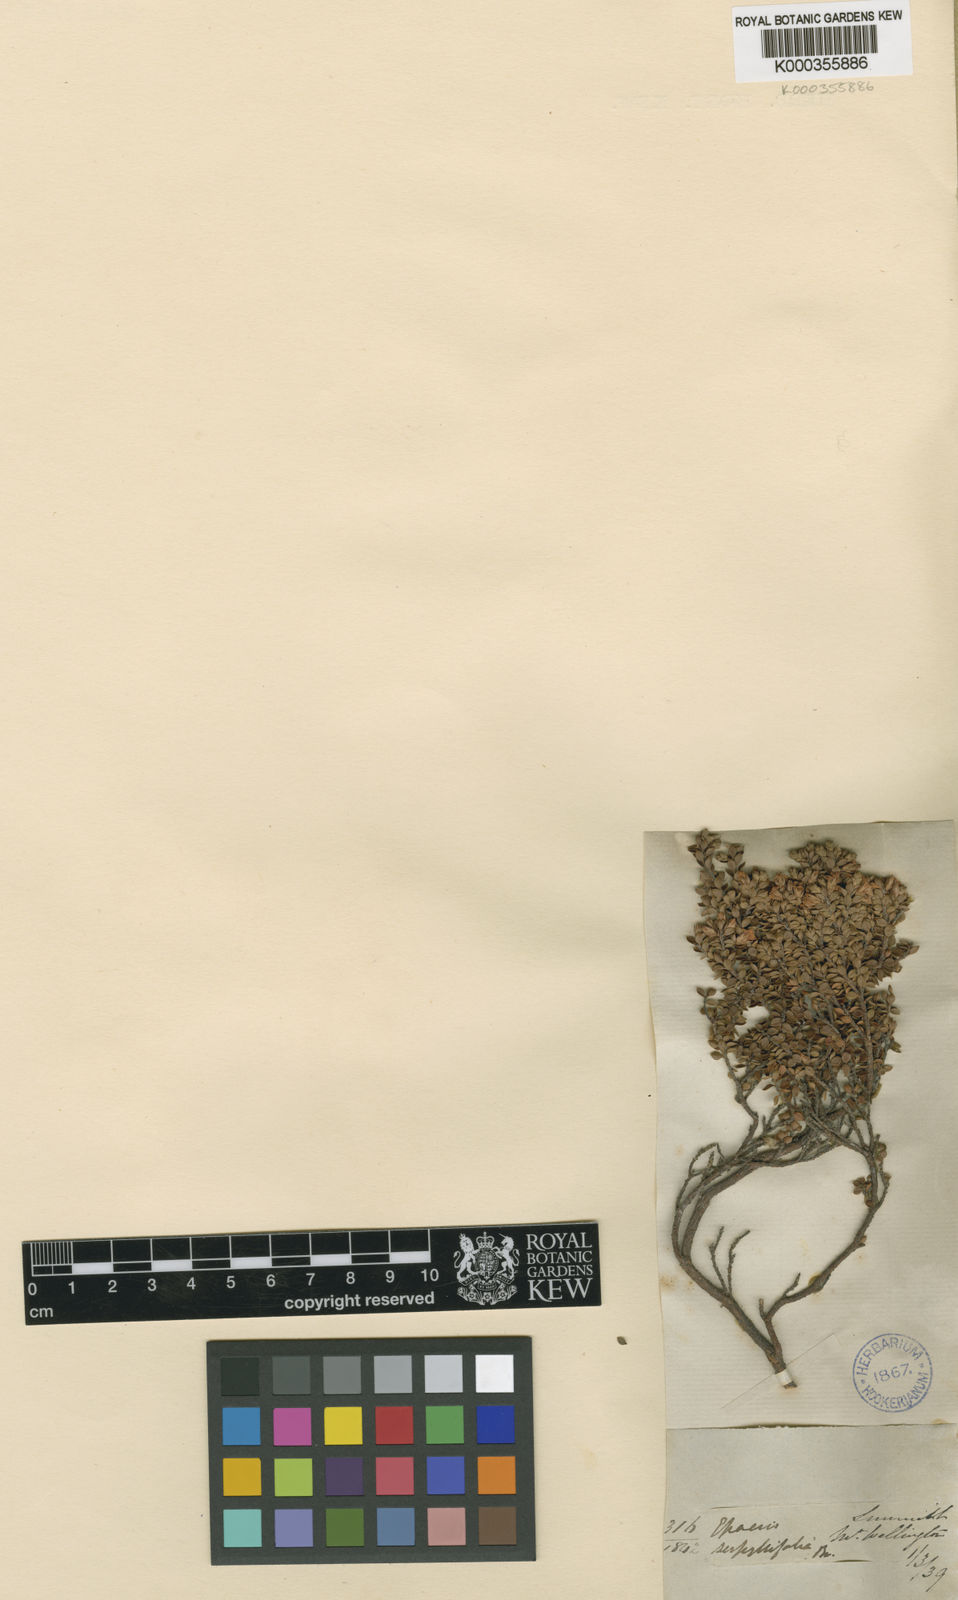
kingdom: Plantae
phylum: Tracheophyta
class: Magnoliopsida
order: Ericales
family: Ericaceae
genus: Epacris
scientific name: Epacris serpyllifolia
